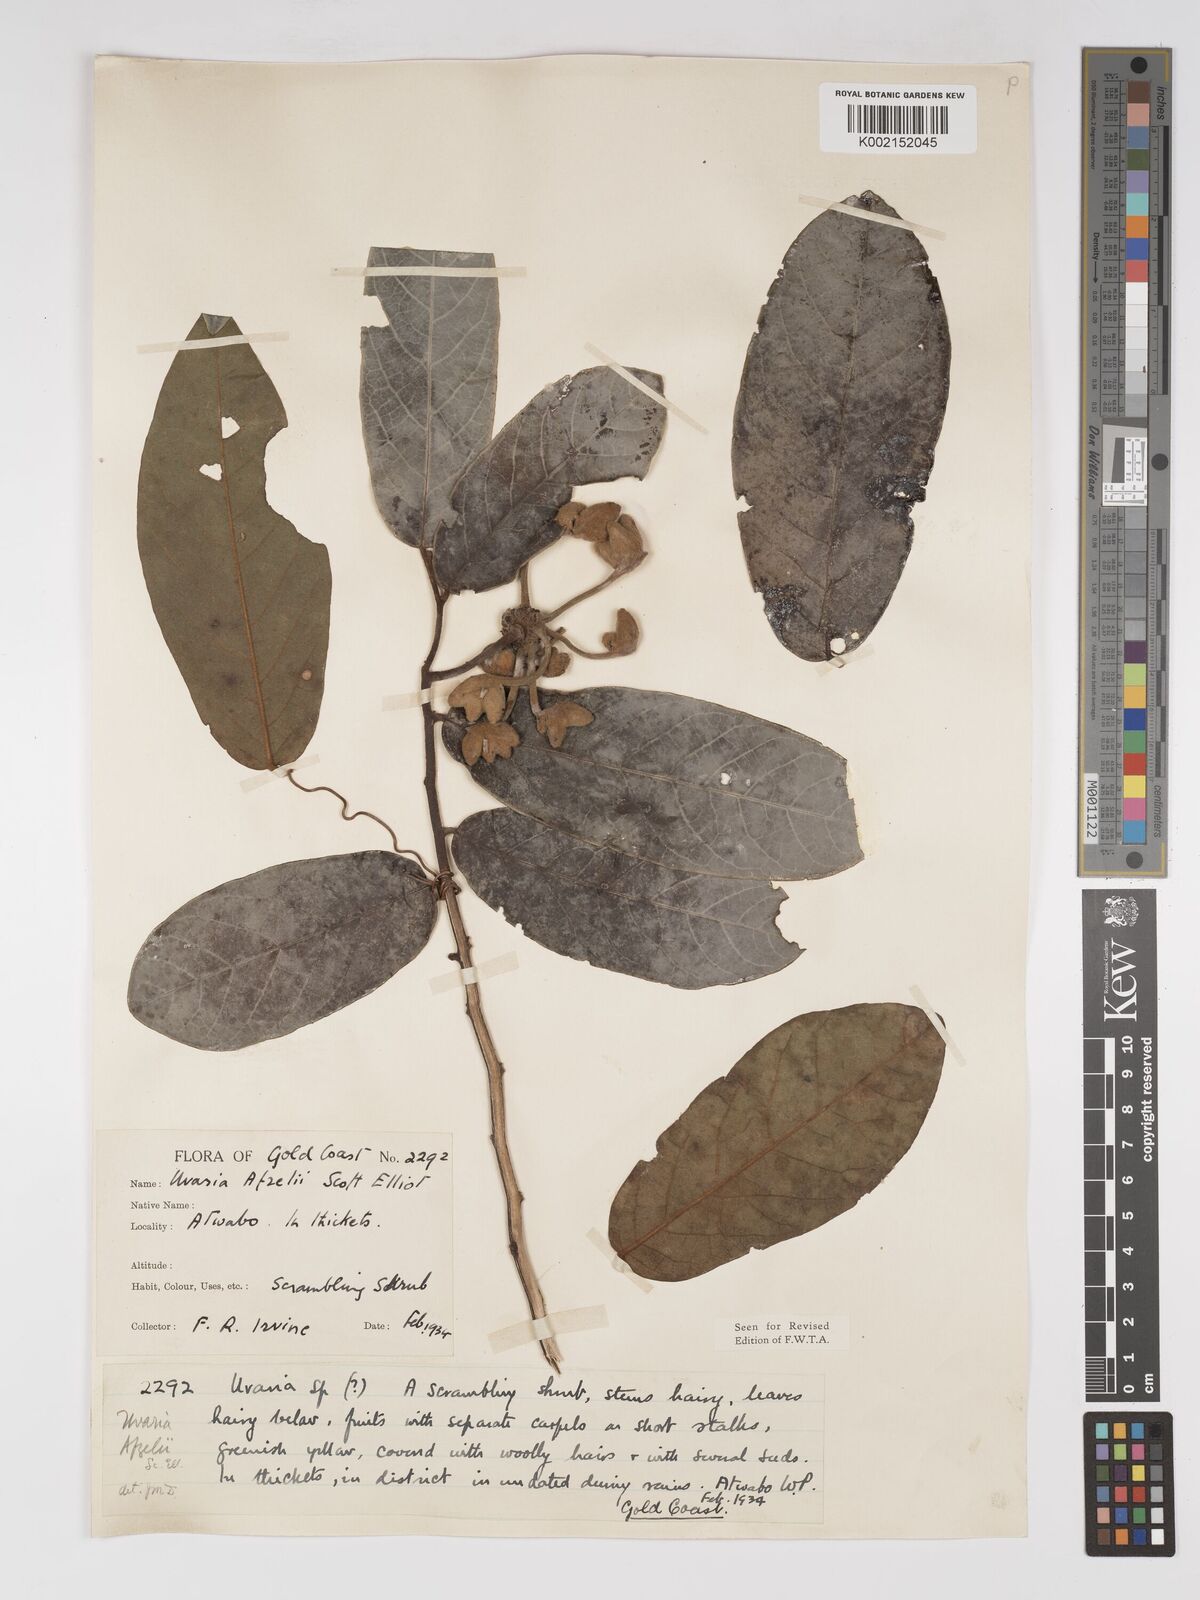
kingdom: Plantae
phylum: Tracheophyta
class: Magnoliopsida
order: Magnoliales
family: Annonaceae
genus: Uvaria
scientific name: Uvaria afzelii
